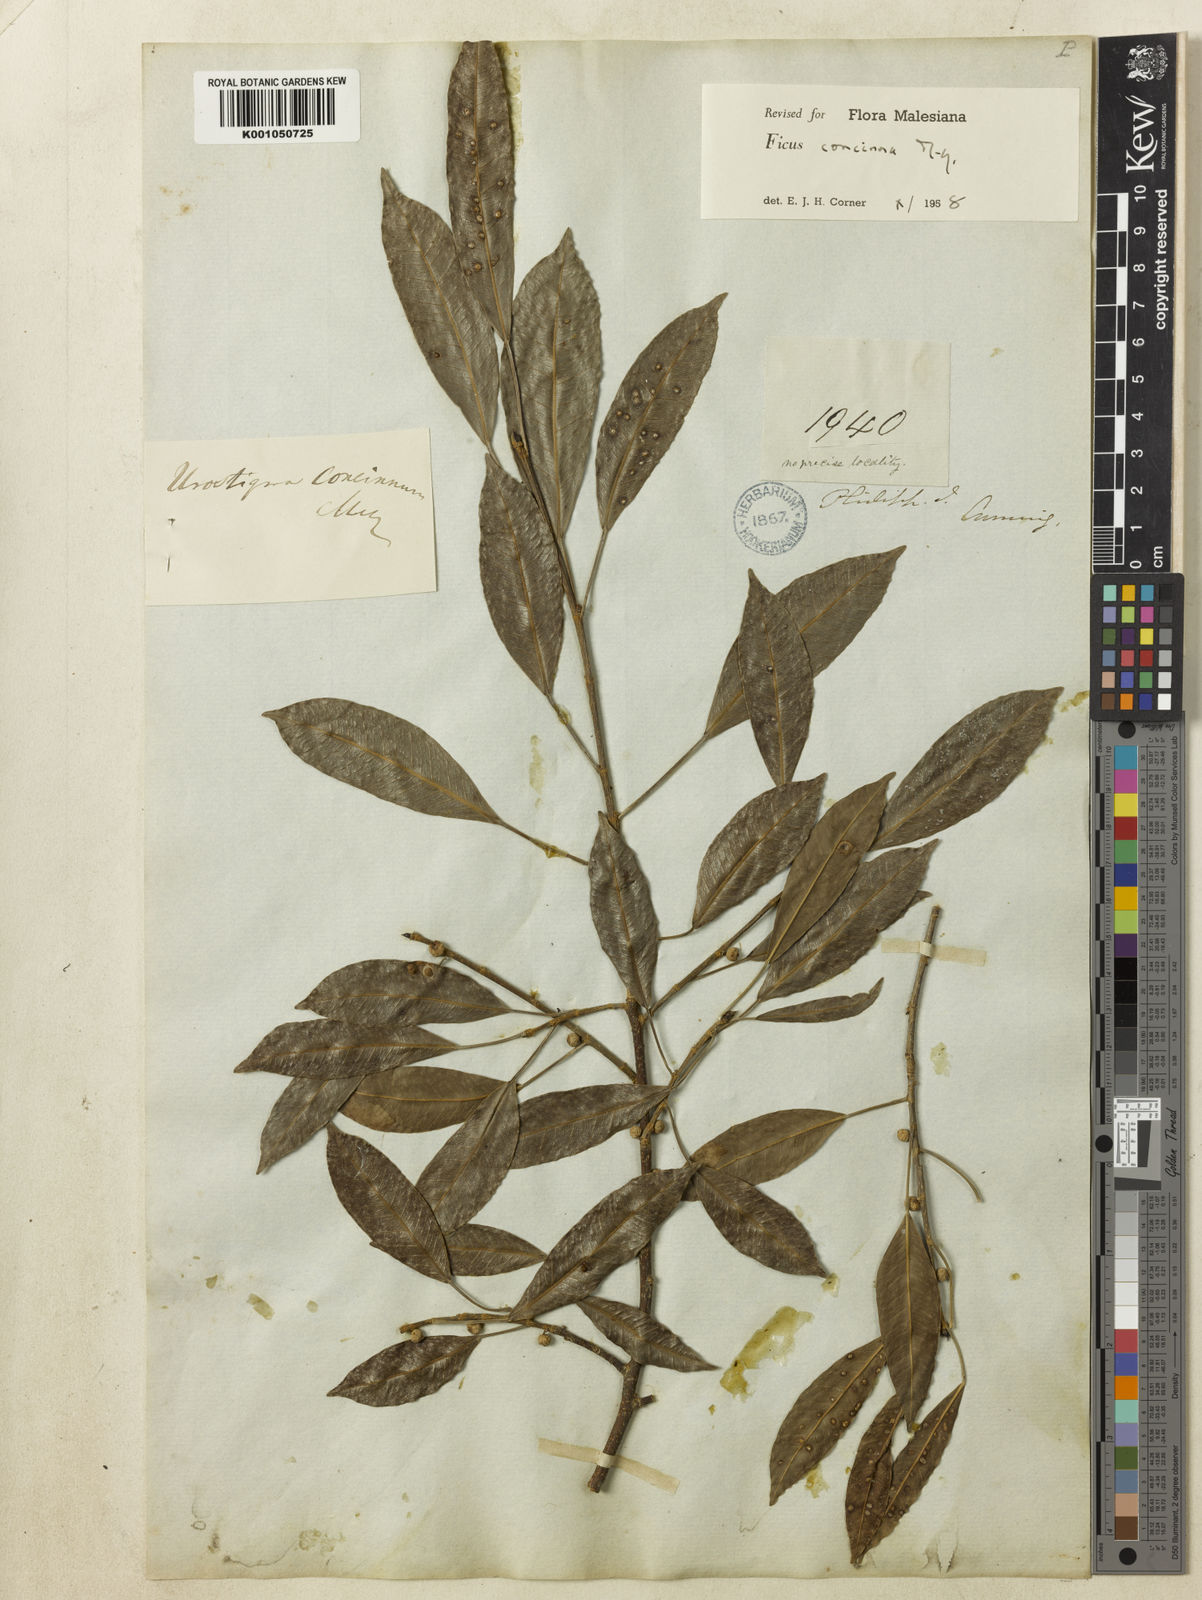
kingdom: Plantae
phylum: Tracheophyta
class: Magnoliopsida
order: Rosales
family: Moraceae
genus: Ficus
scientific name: Ficus concinna
